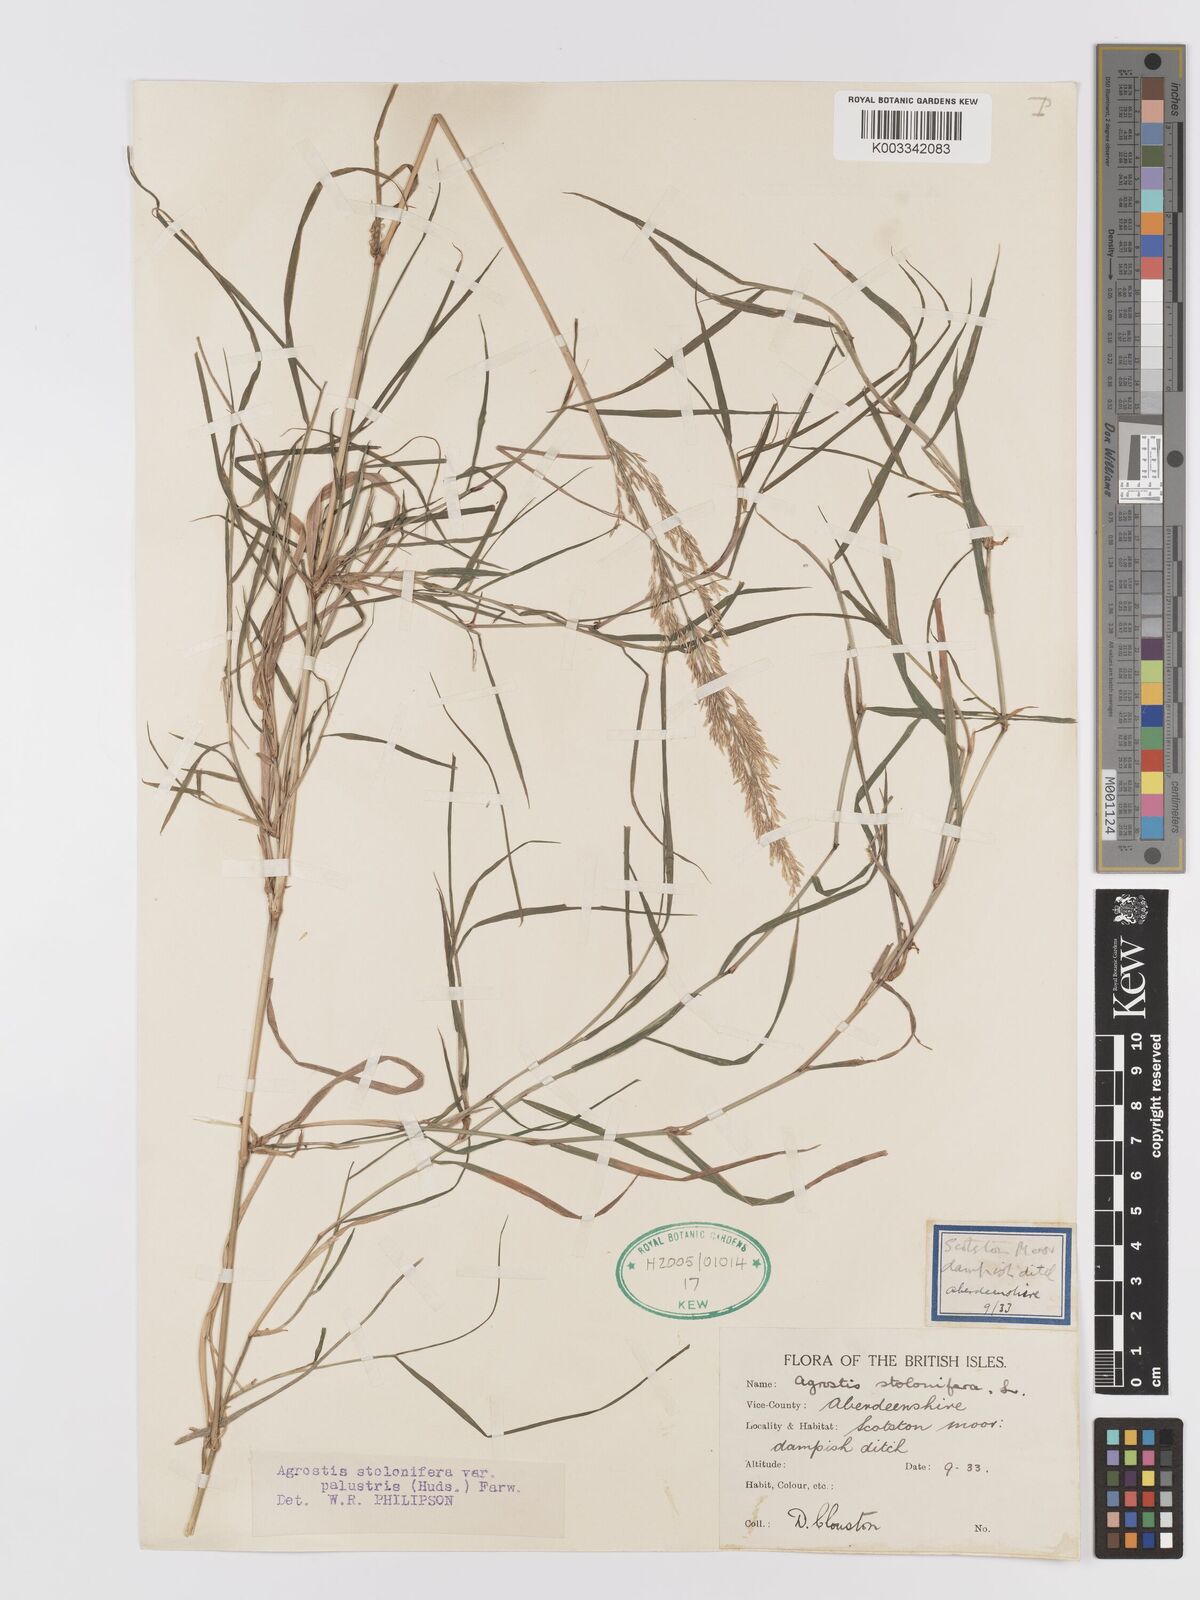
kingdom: Plantae
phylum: Tracheophyta
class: Liliopsida
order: Poales
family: Poaceae
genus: Agrostis
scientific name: Agrostis stolonifera
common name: Creeping bentgrass
